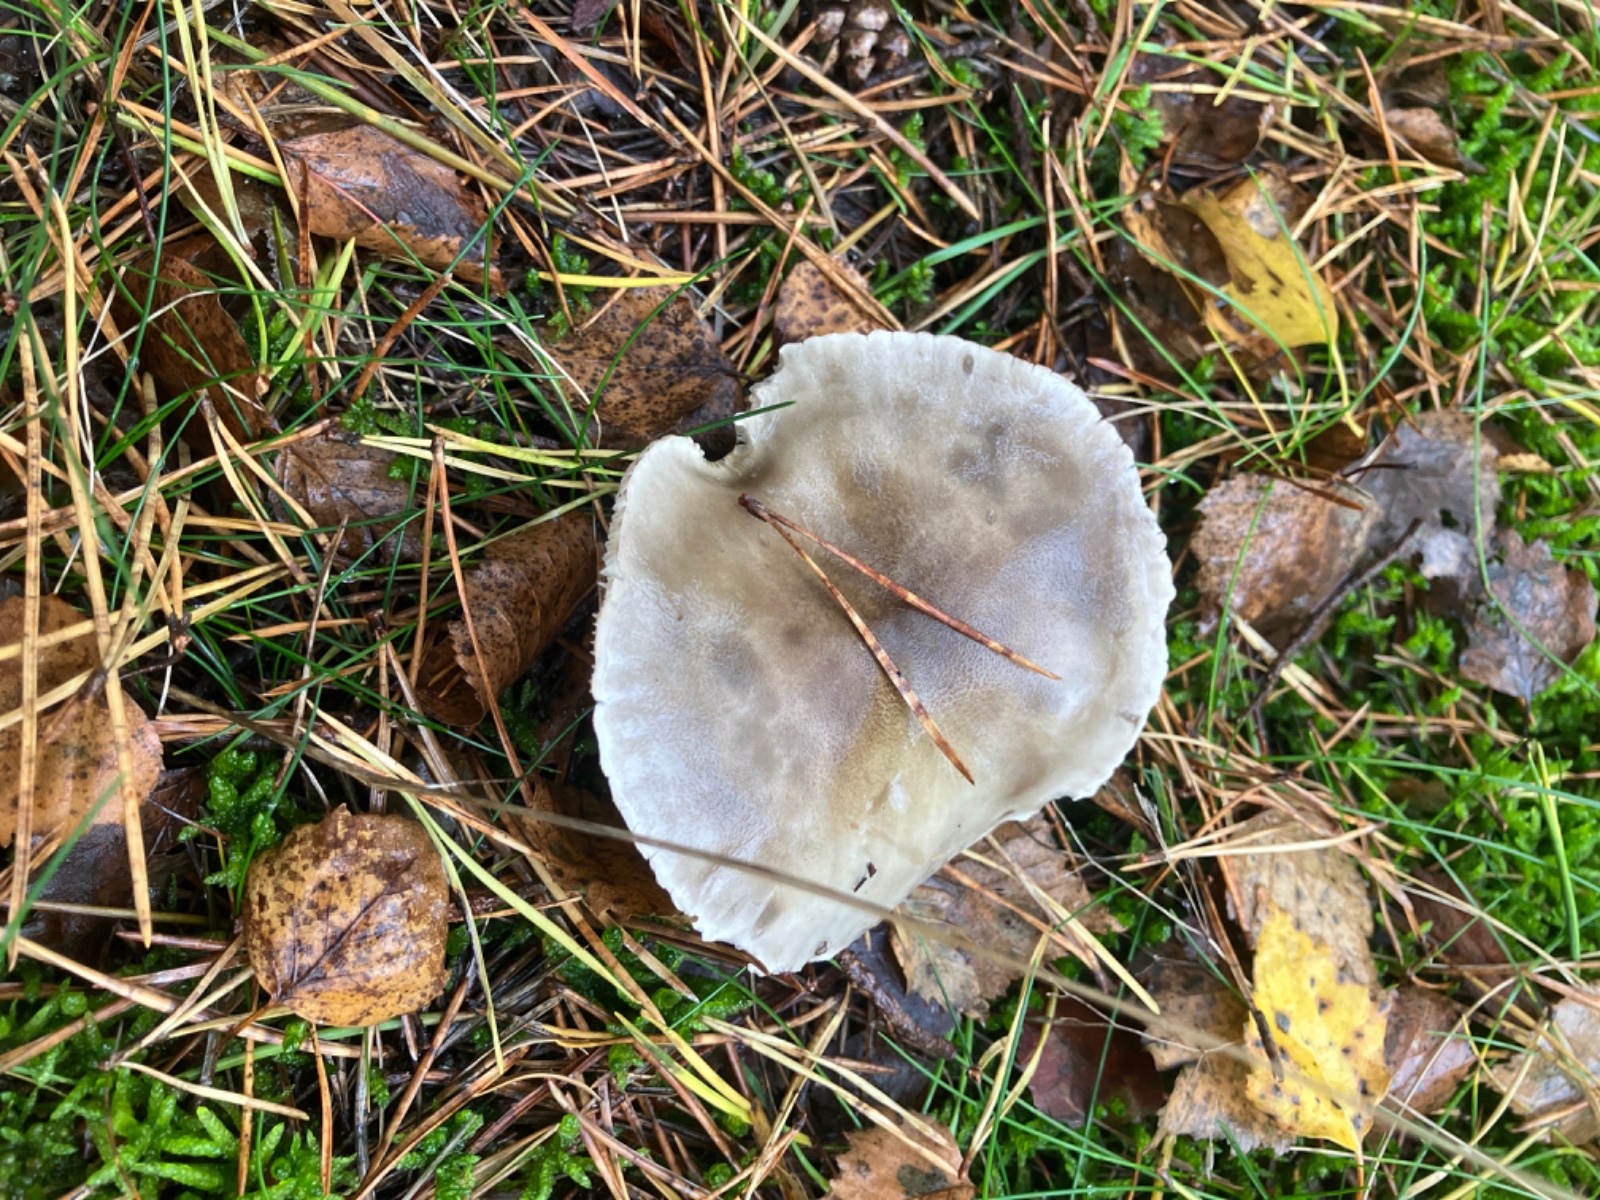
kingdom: Fungi
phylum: Basidiomycota
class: Agaricomycetes
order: Agaricales
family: Tricholomataceae
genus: Tricholoma
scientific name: Tricholoma sudum
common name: tør ridderhat
